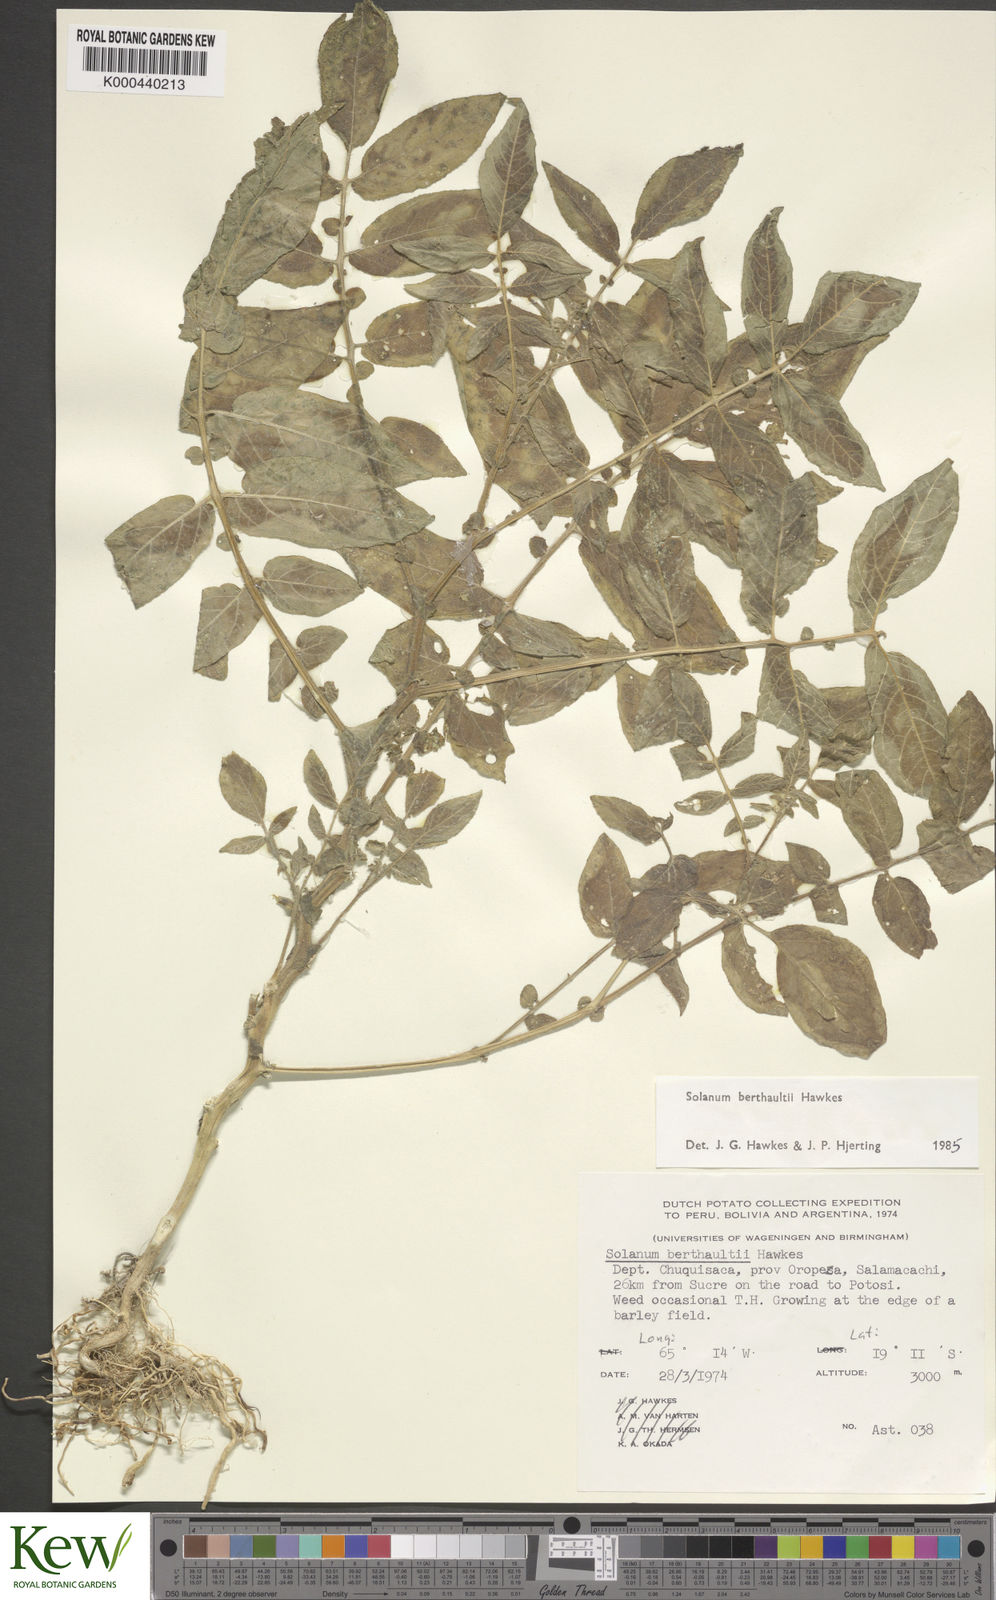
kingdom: Plantae
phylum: Tracheophyta
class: Magnoliopsida
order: Solanales
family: Solanaceae
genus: Solanum
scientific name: Solanum berthaultii
